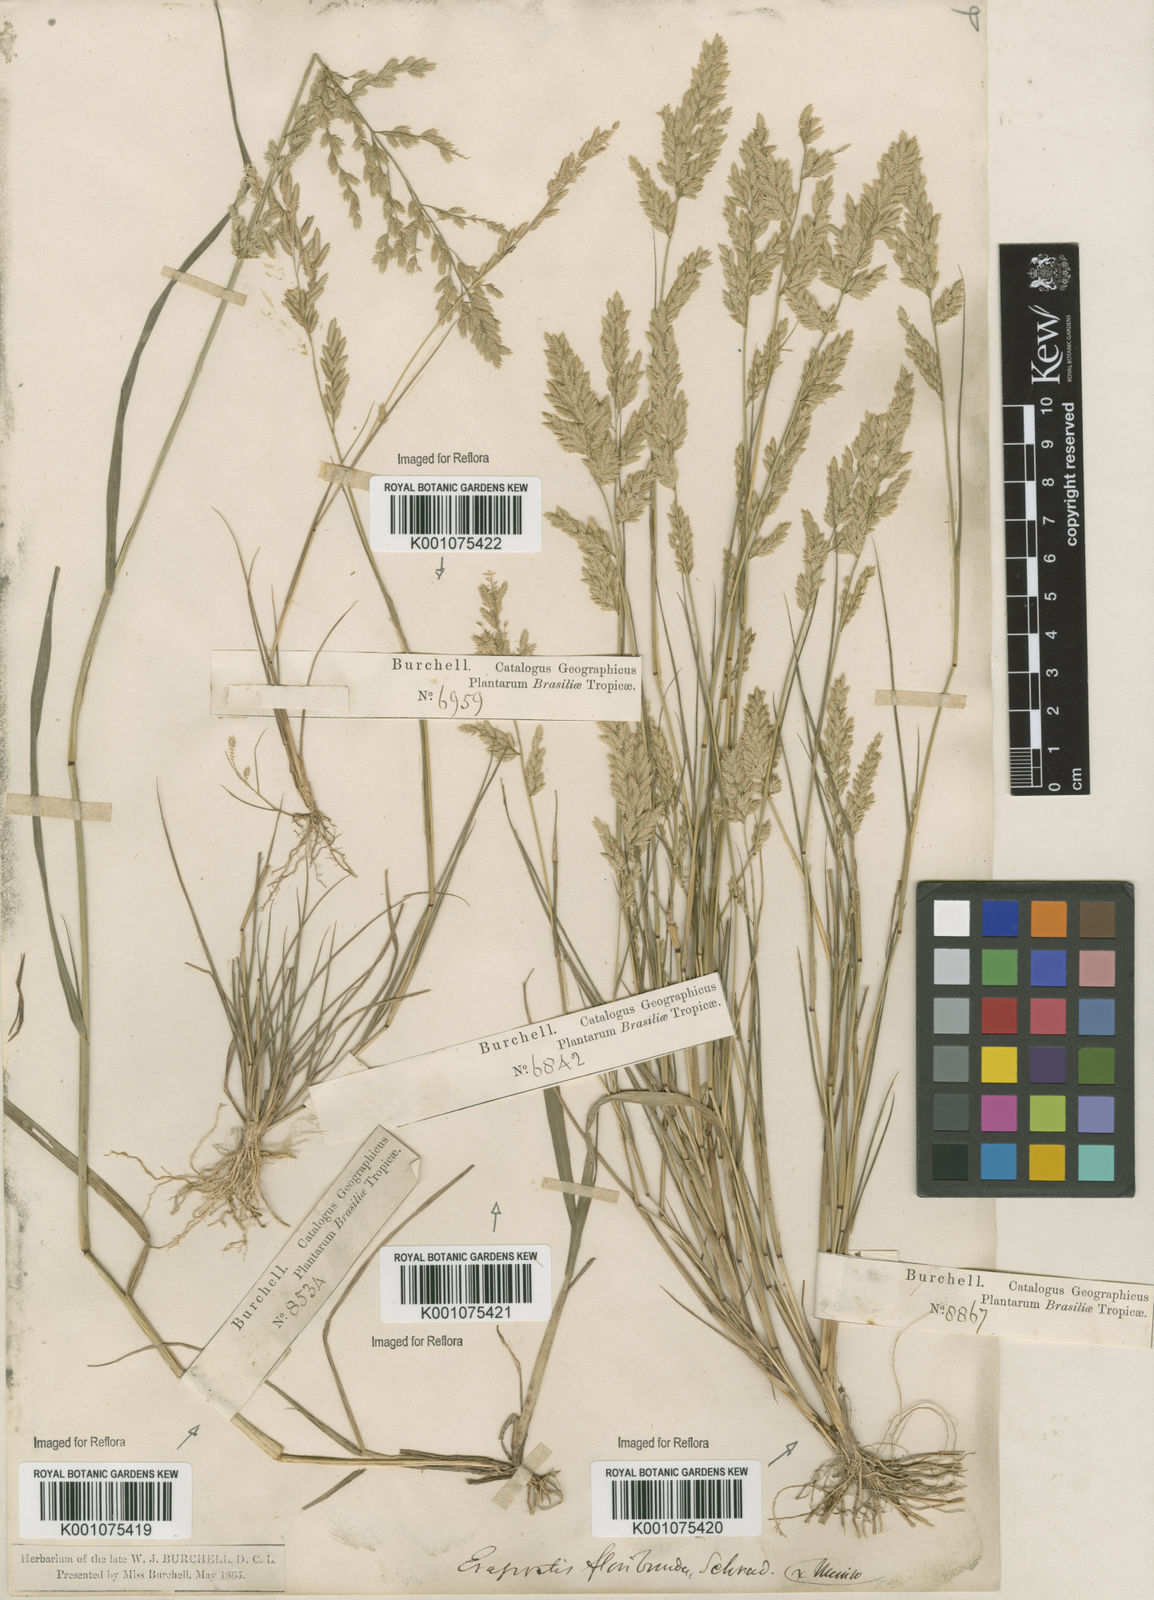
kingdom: Plantae
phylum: Tracheophyta
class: Liliopsida
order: Poales
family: Poaceae
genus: Eragrostis
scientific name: Eragrostis rufescens
